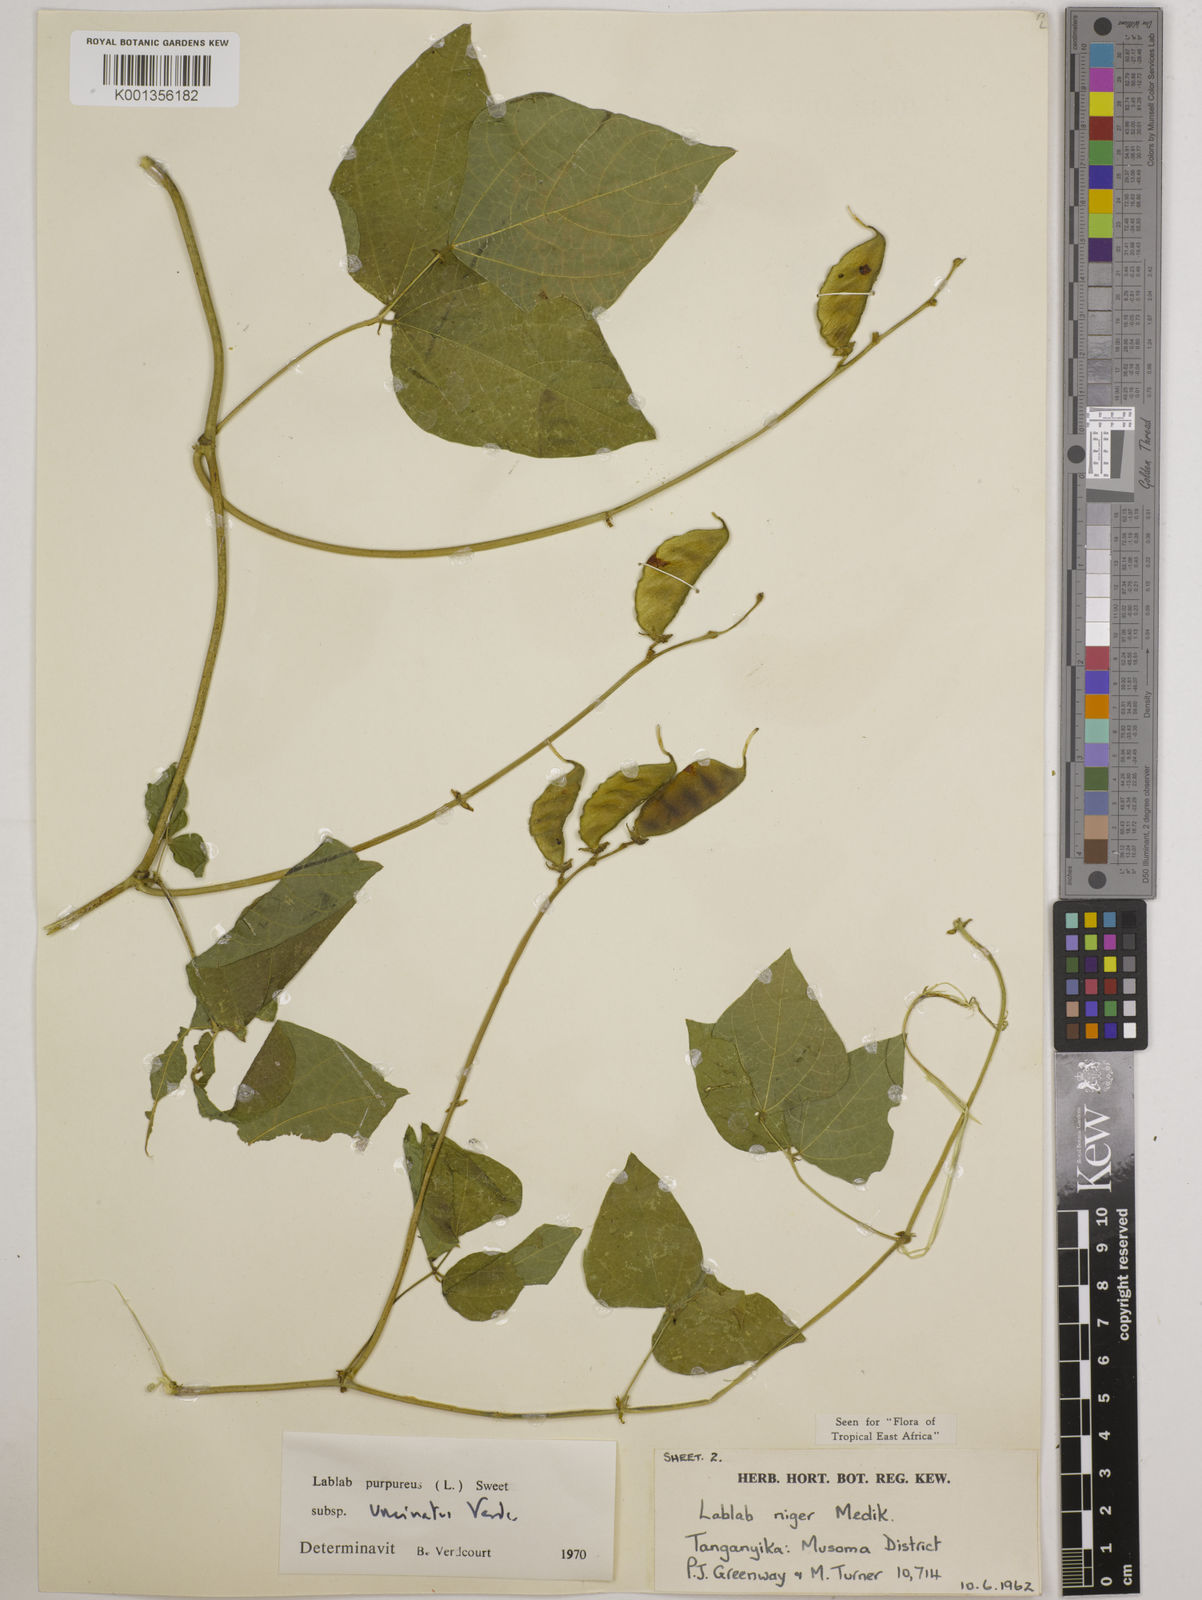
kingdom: Plantae
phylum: Tracheophyta
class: Magnoliopsida
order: Fabales
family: Fabaceae
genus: Lablab
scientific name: Lablab purpureus
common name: Lablab-bean
